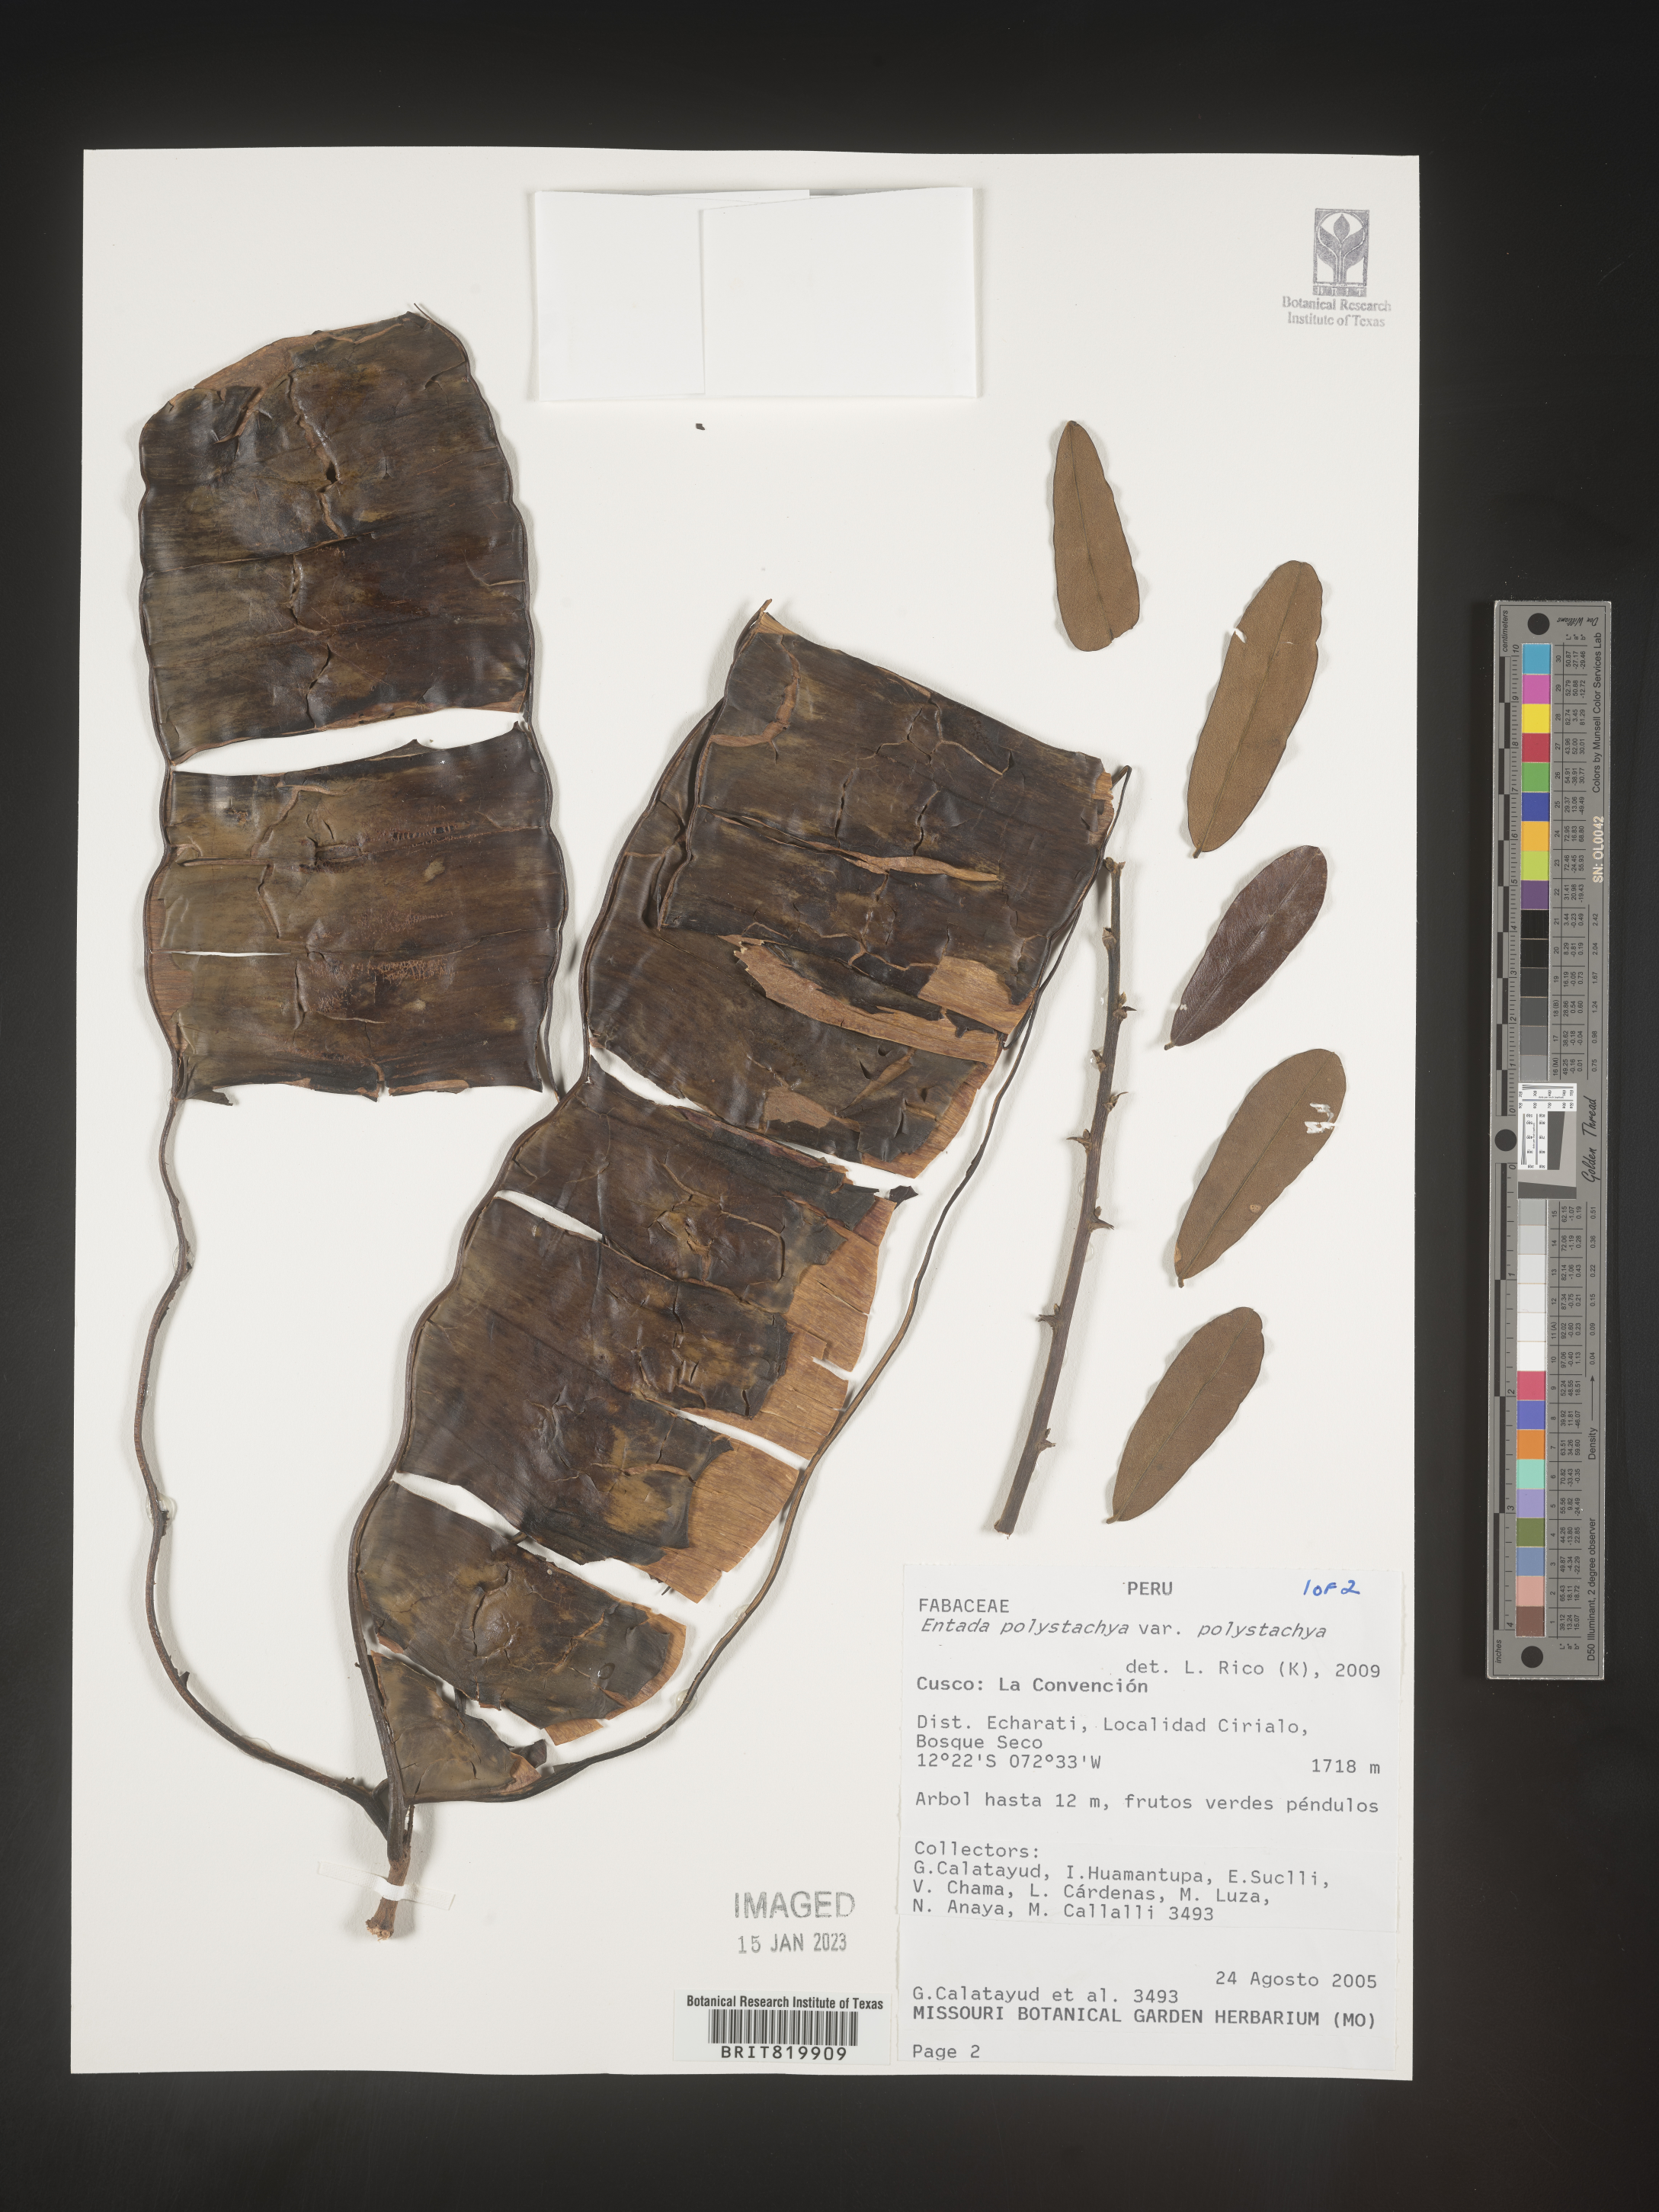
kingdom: Plantae
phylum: Tracheophyta
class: Magnoliopsida
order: Fabales
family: Fabaceae
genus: Entada
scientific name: Entada
